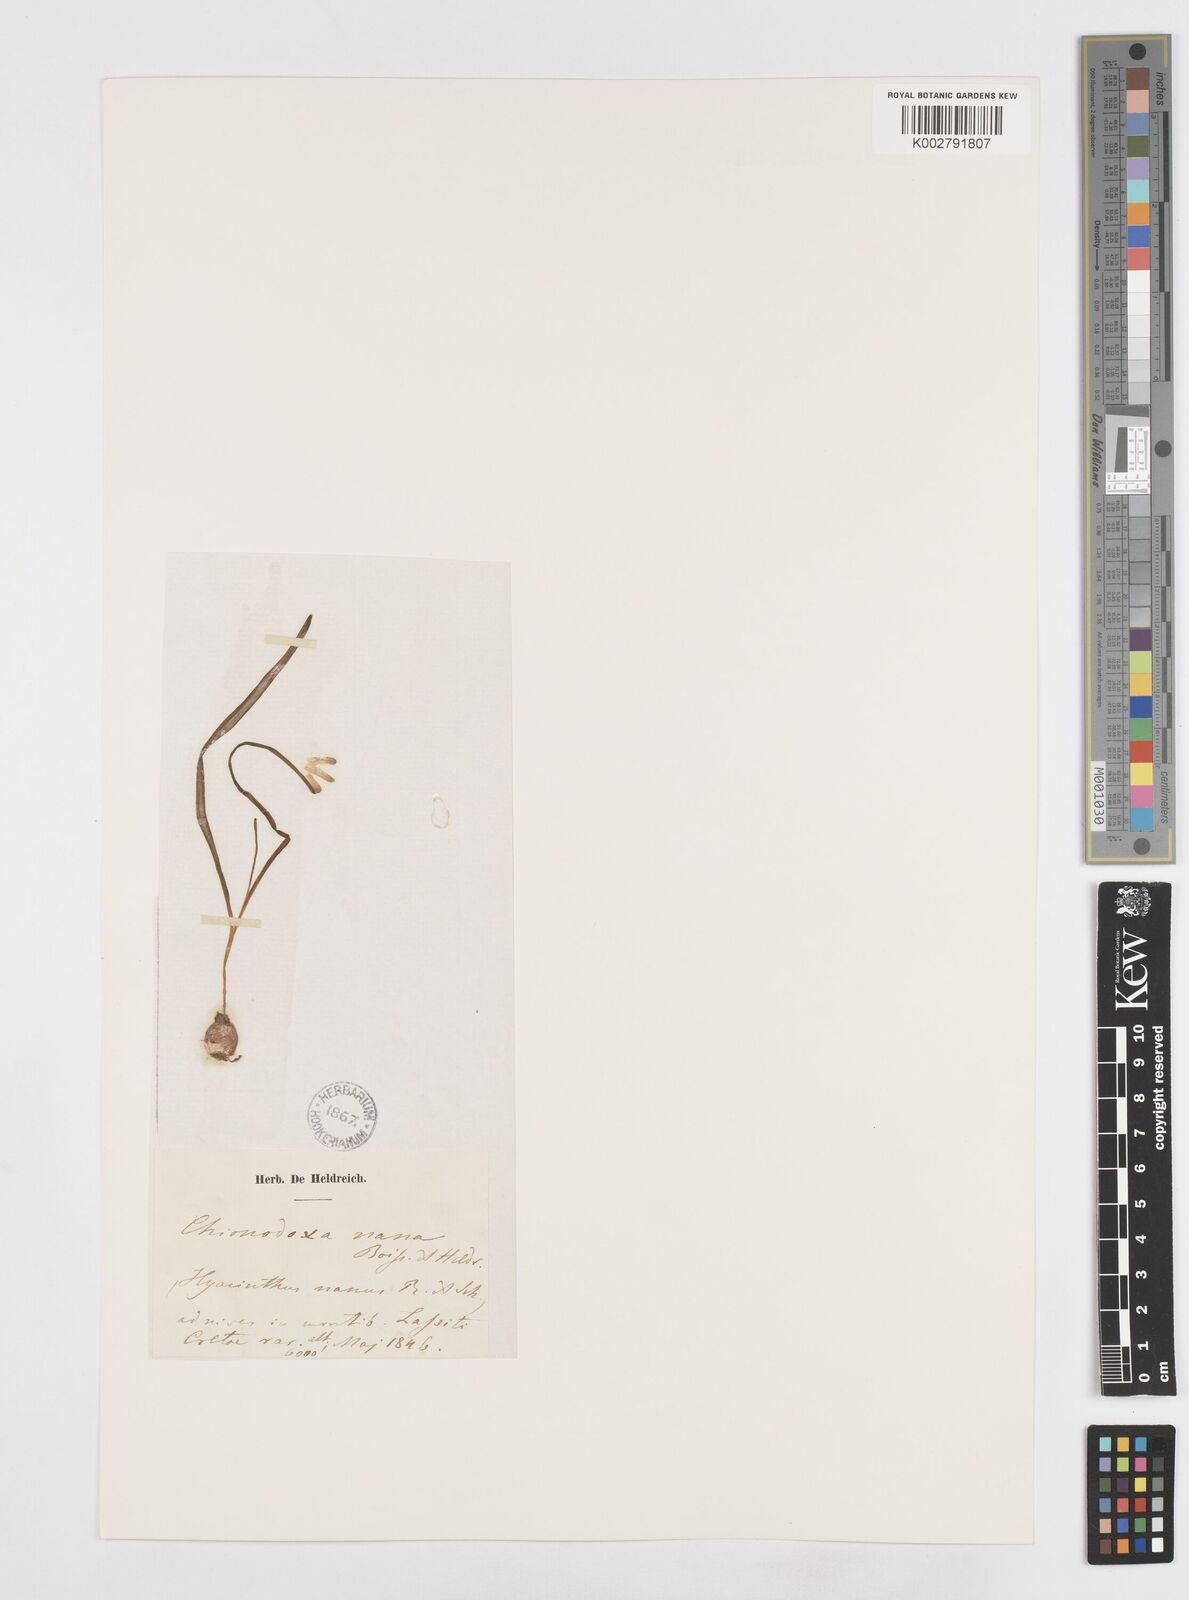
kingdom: Plantae
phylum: Tracheophyta
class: Liliopsida
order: Asparagales
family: Asparagaceae
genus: Scilla
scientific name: Scilla cretica
